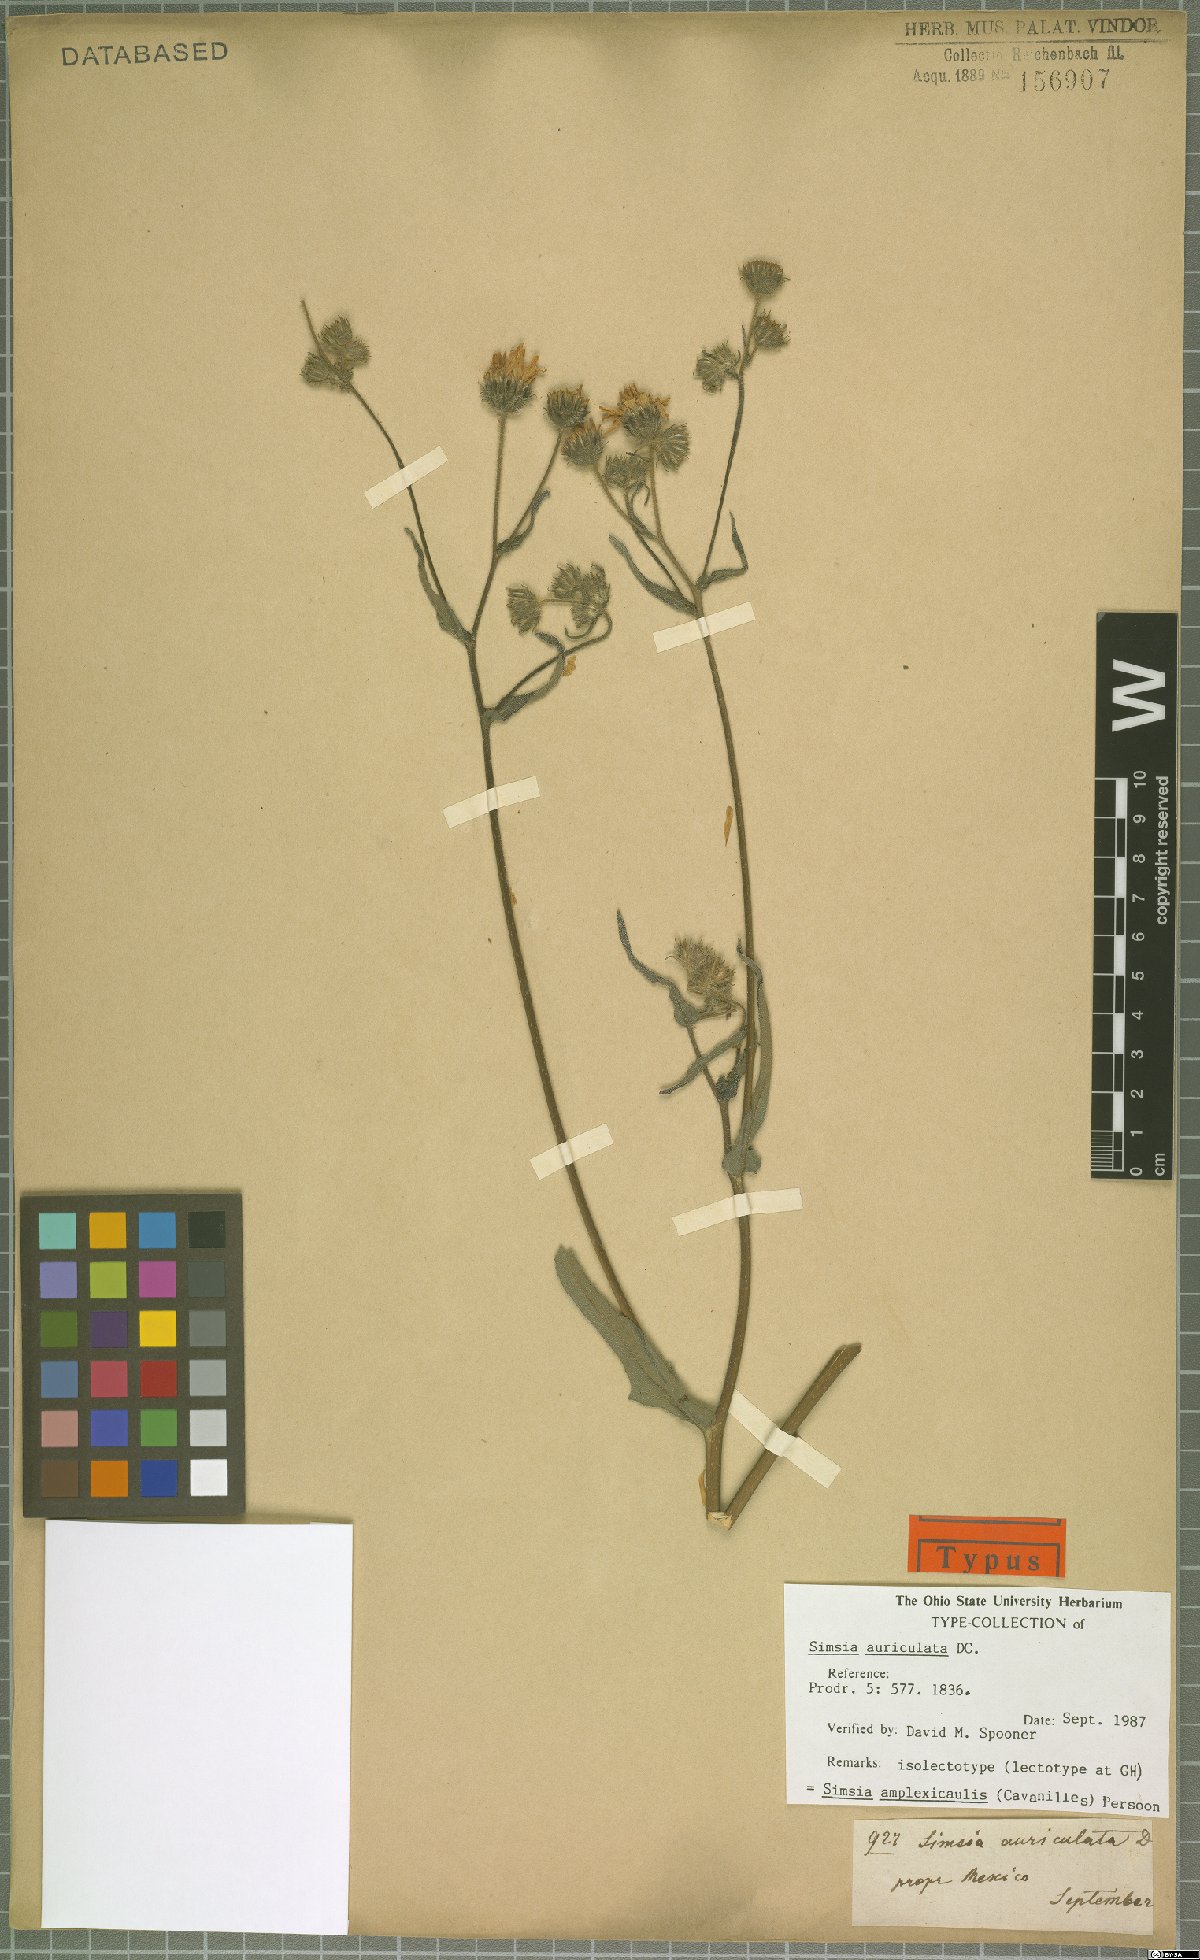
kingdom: Plantae
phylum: Tracheophyta
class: Magnoliopsida
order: Asterales
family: Asteraceae
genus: Simsia
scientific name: Simsia amplexicaulis
